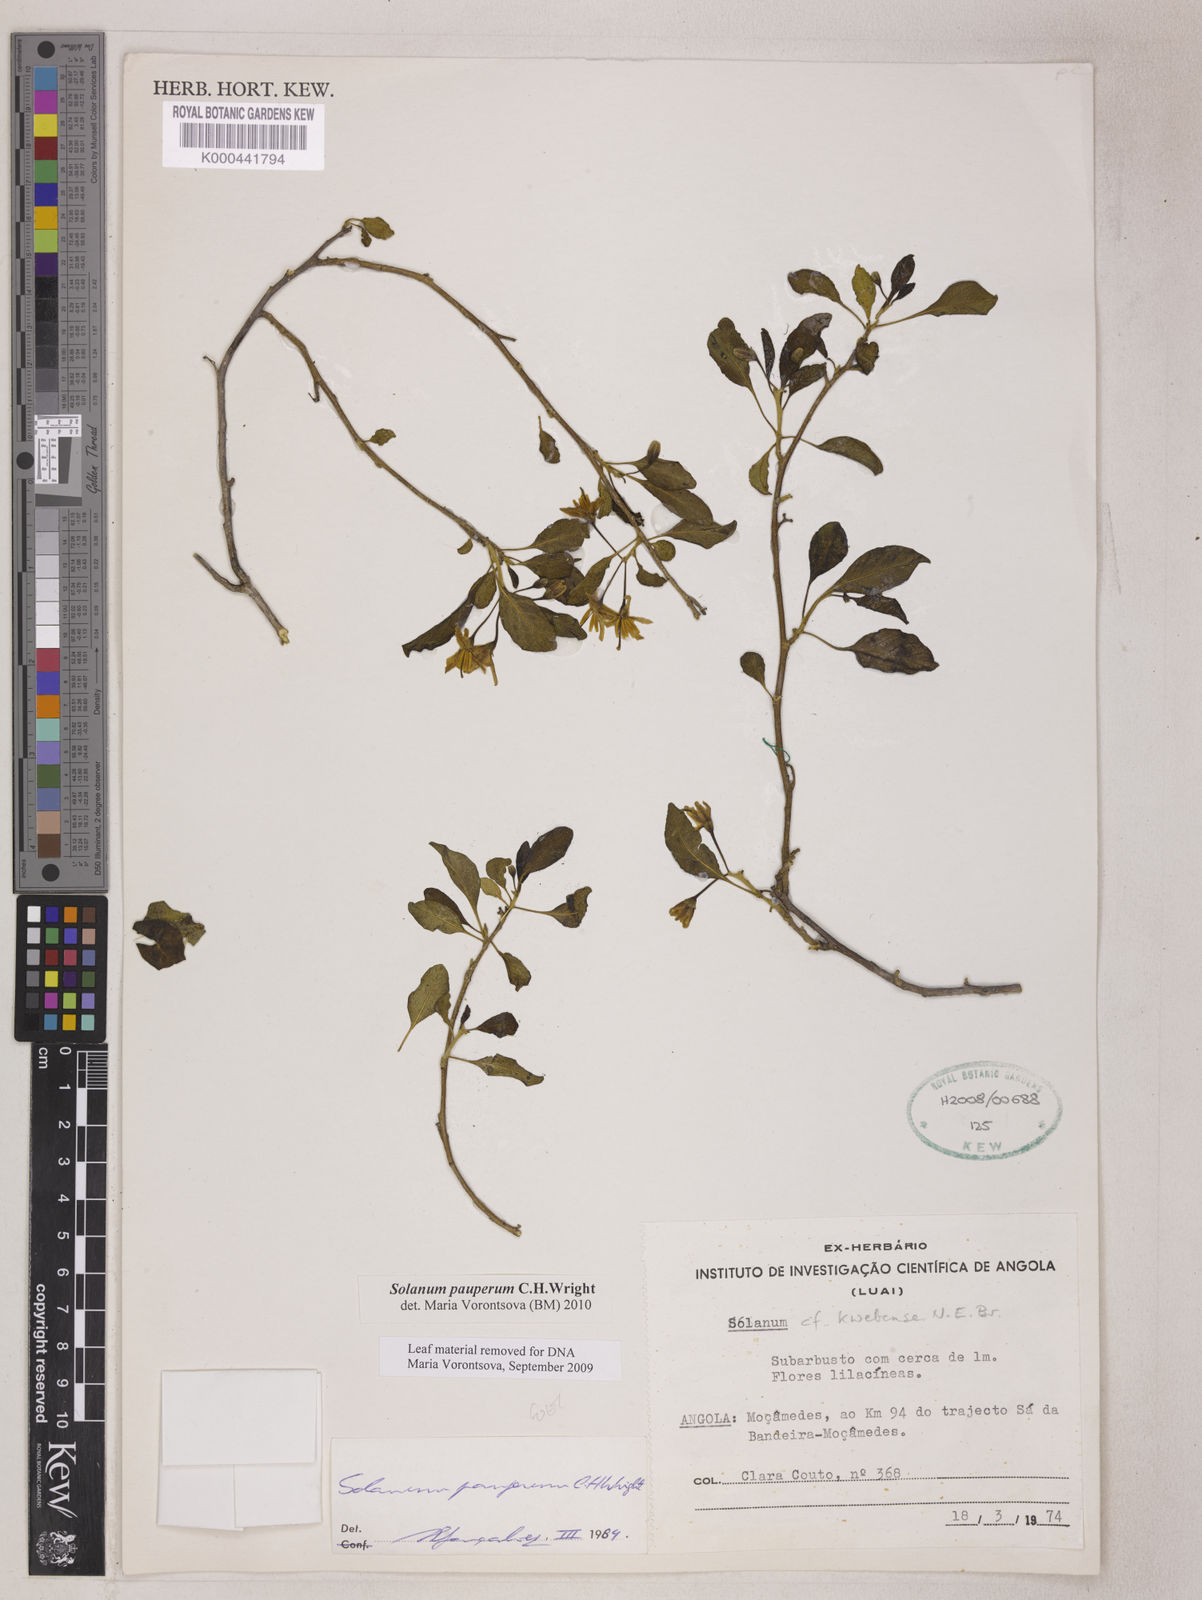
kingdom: Plantae
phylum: Tracheophyta
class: Magnoliopsida
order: Solanales
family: Solanaceae
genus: Solanum
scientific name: Solanum anomalum
